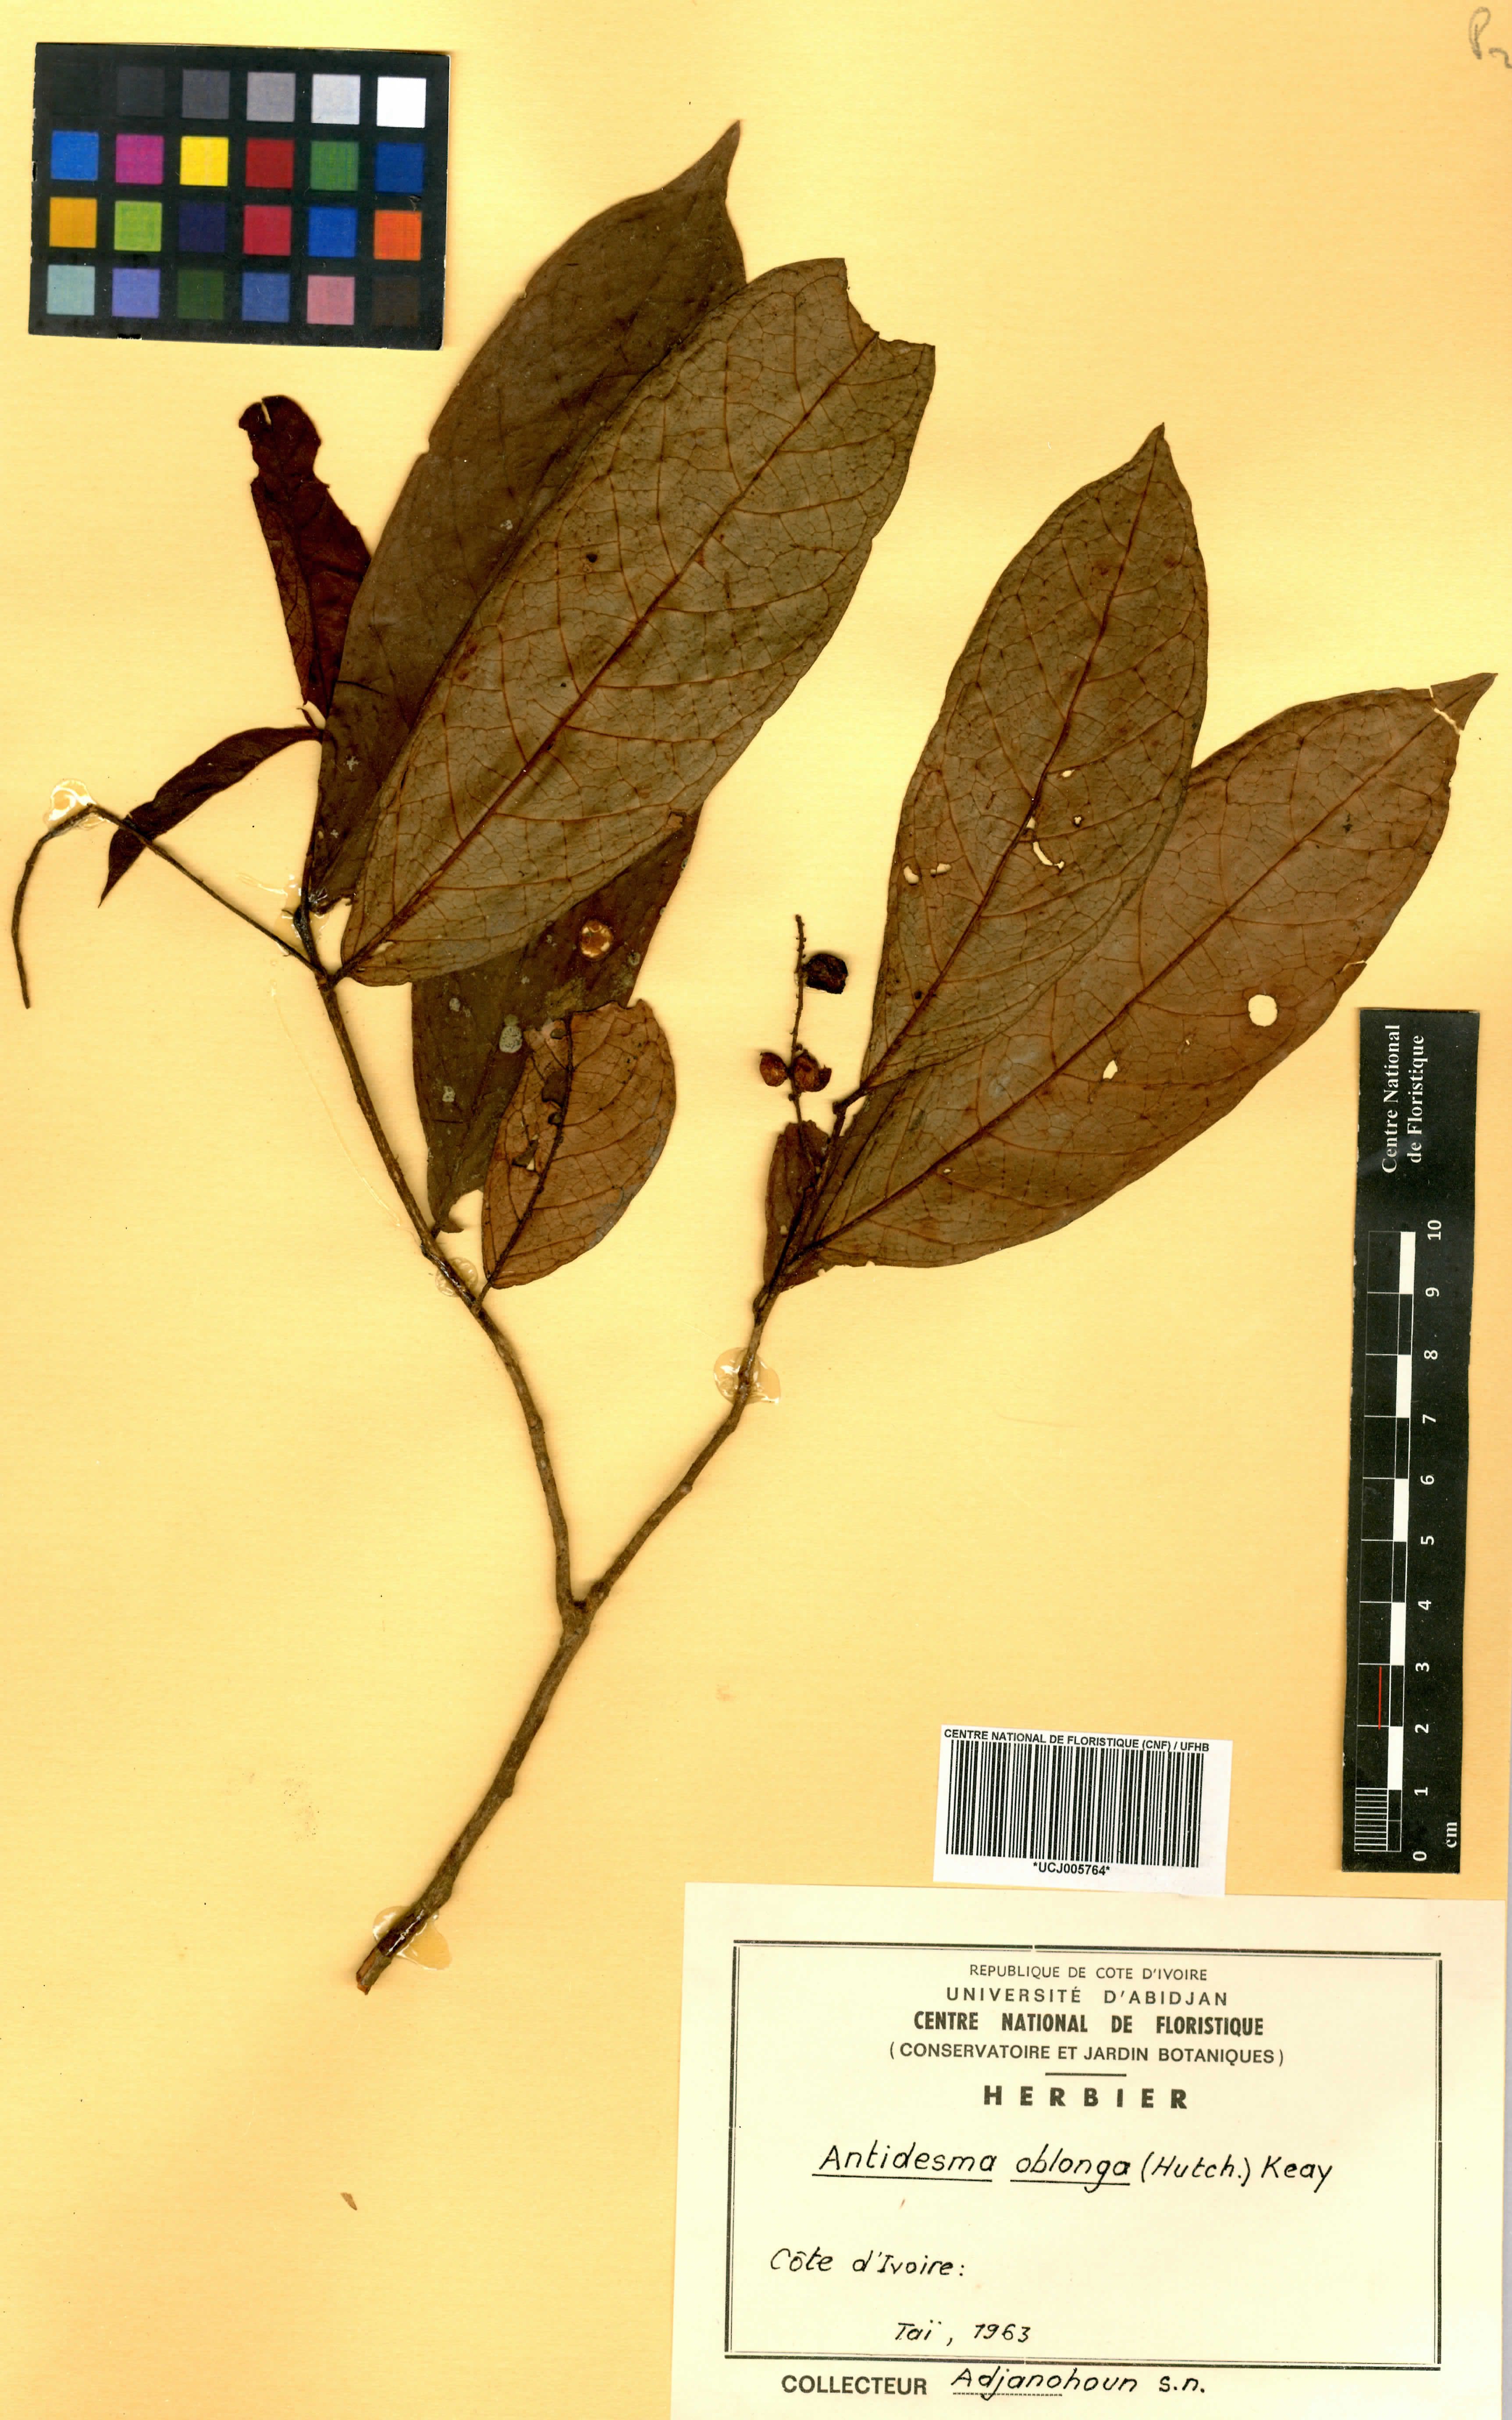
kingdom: Plantae
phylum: Tracheophyta
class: Magnoliopsida
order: Malpighiales
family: Phyllanthaceae
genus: Antidesma
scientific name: Antidesma oblongum
